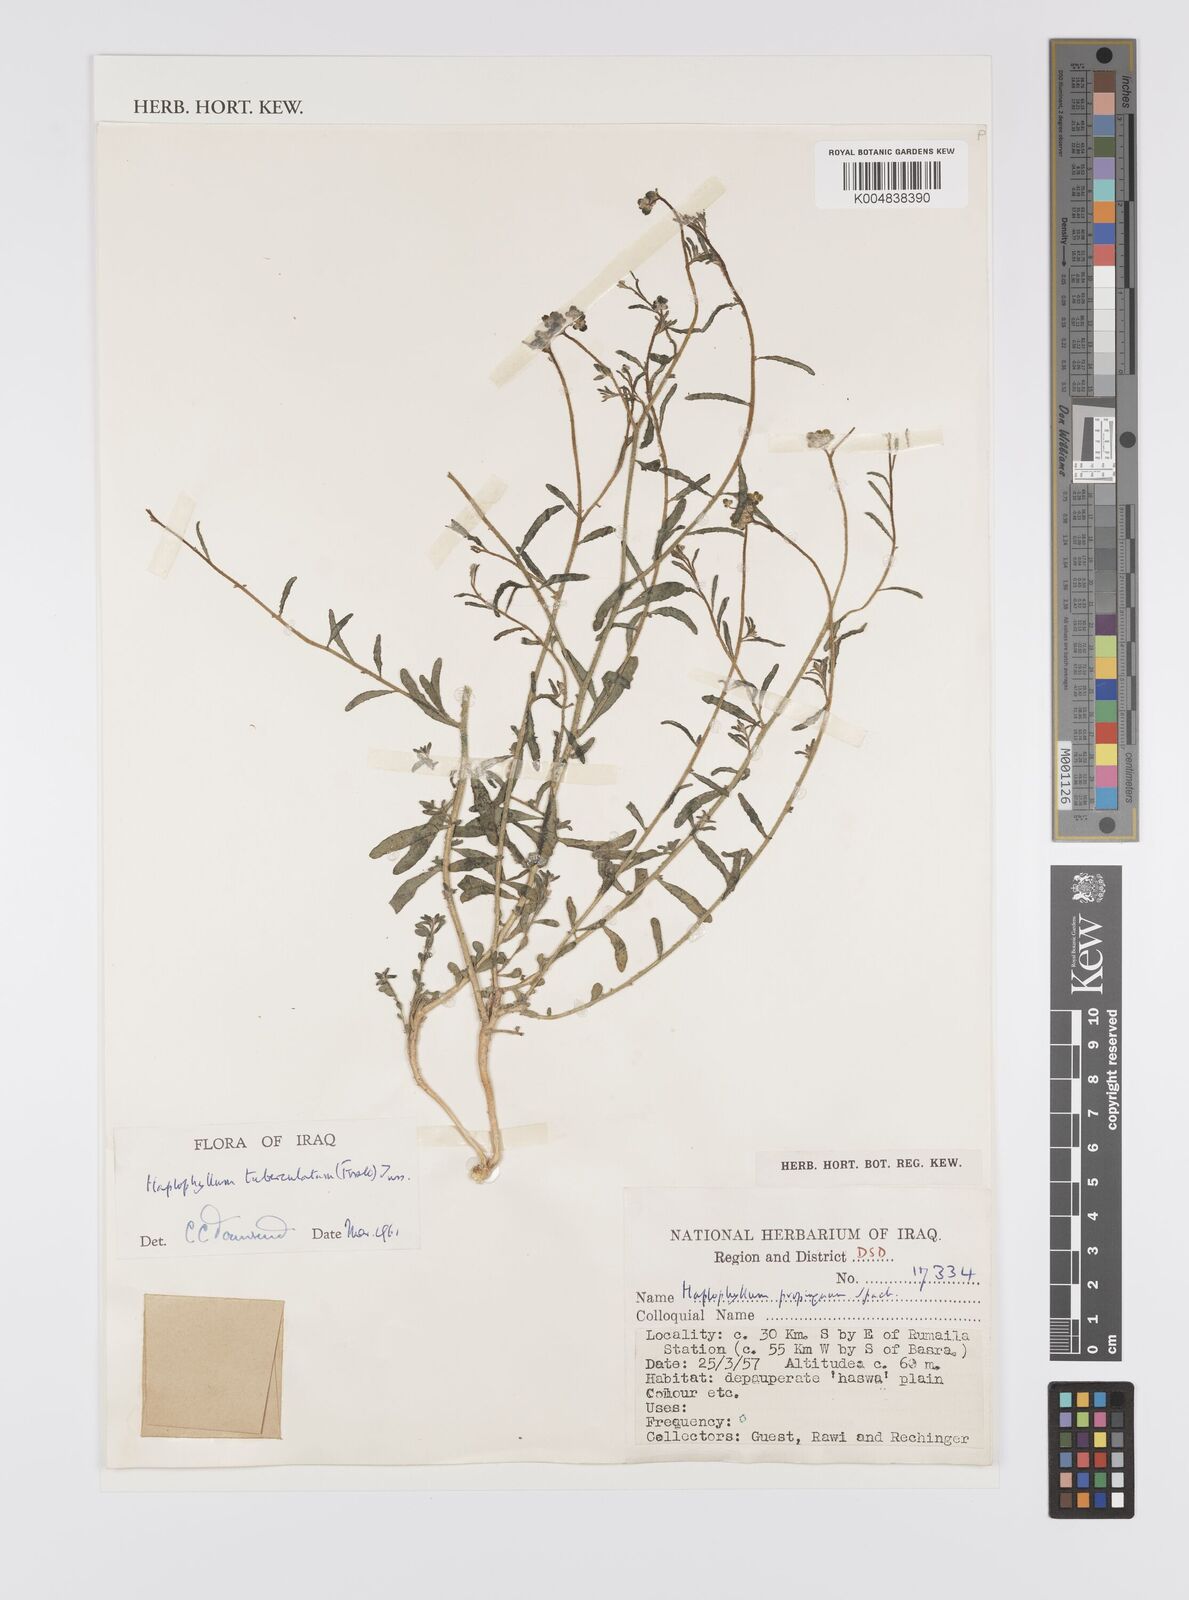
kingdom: Plantae
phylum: Tracheophyta
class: Magnoliopsida
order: Sapindales
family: Rutaceae
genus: Haplophyllum
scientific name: Haplophyllum tuberculatum
